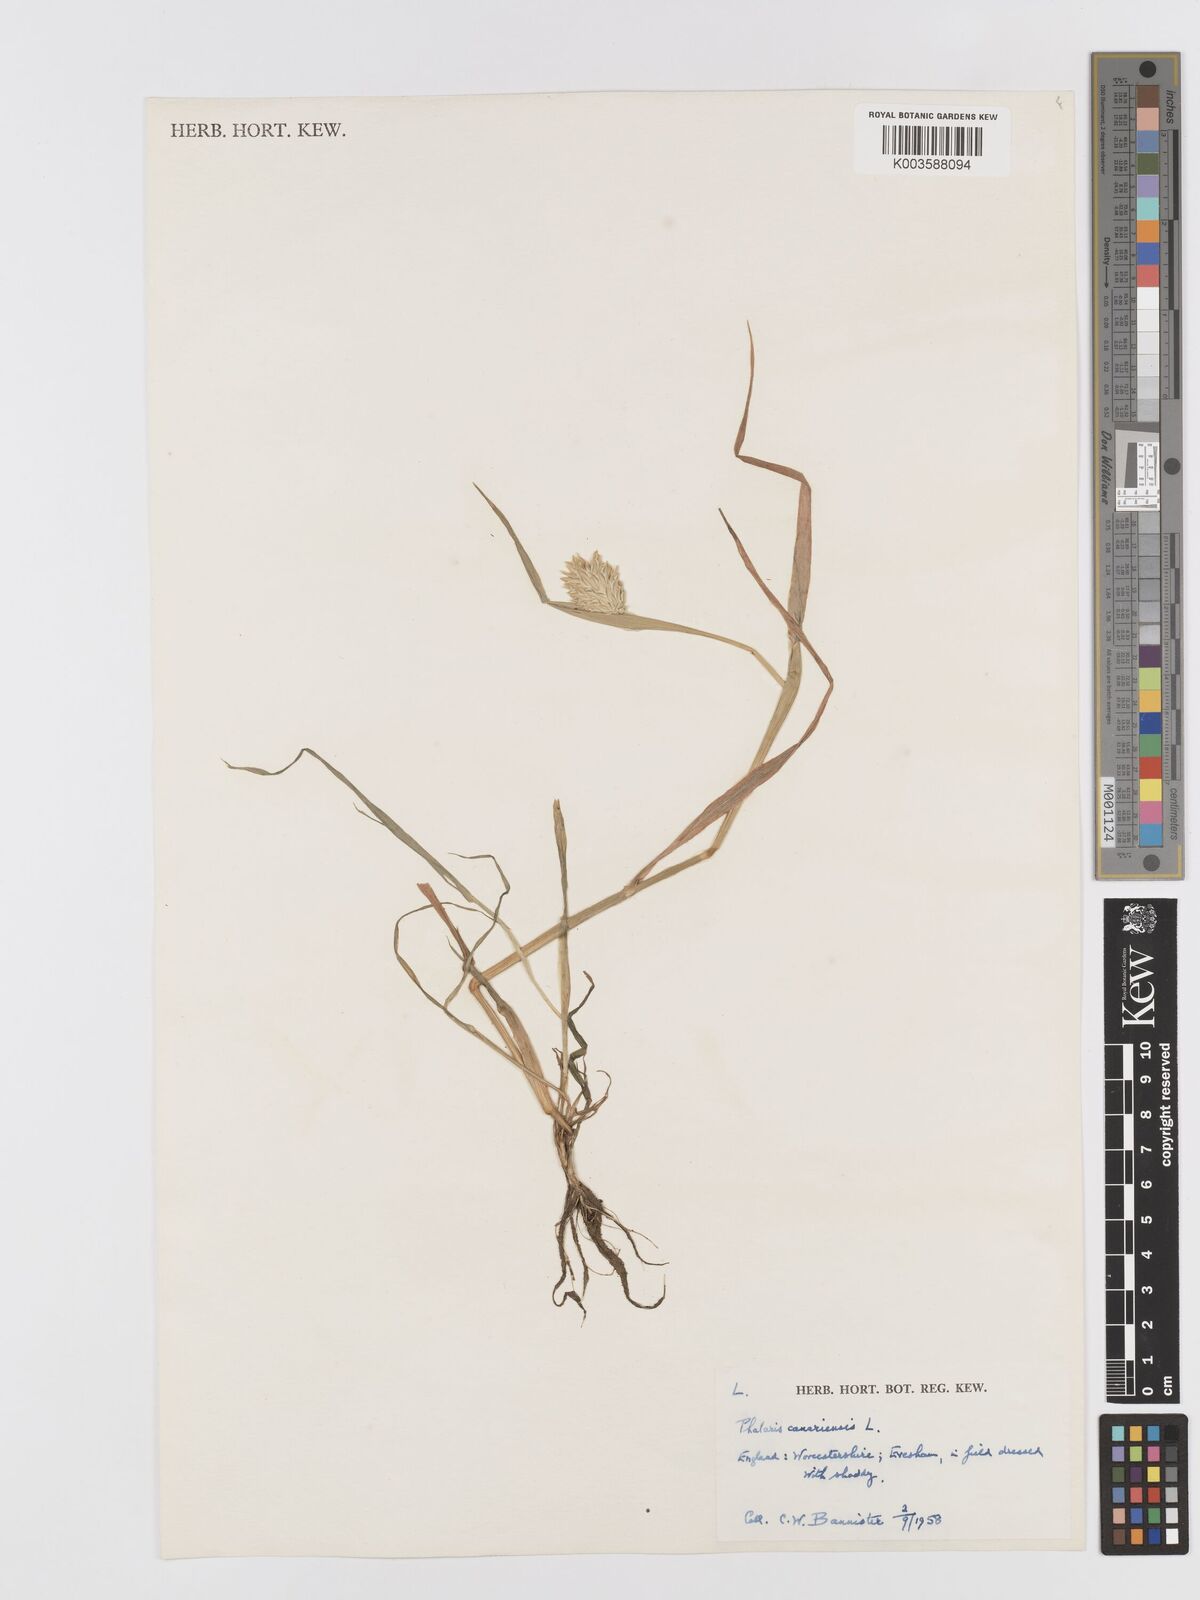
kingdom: Plantae
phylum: Tracheophyta
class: Liliopsida
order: Poales
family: Poaceae
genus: Phalaris
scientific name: Phalaris canariensis
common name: Annual canarygrass
